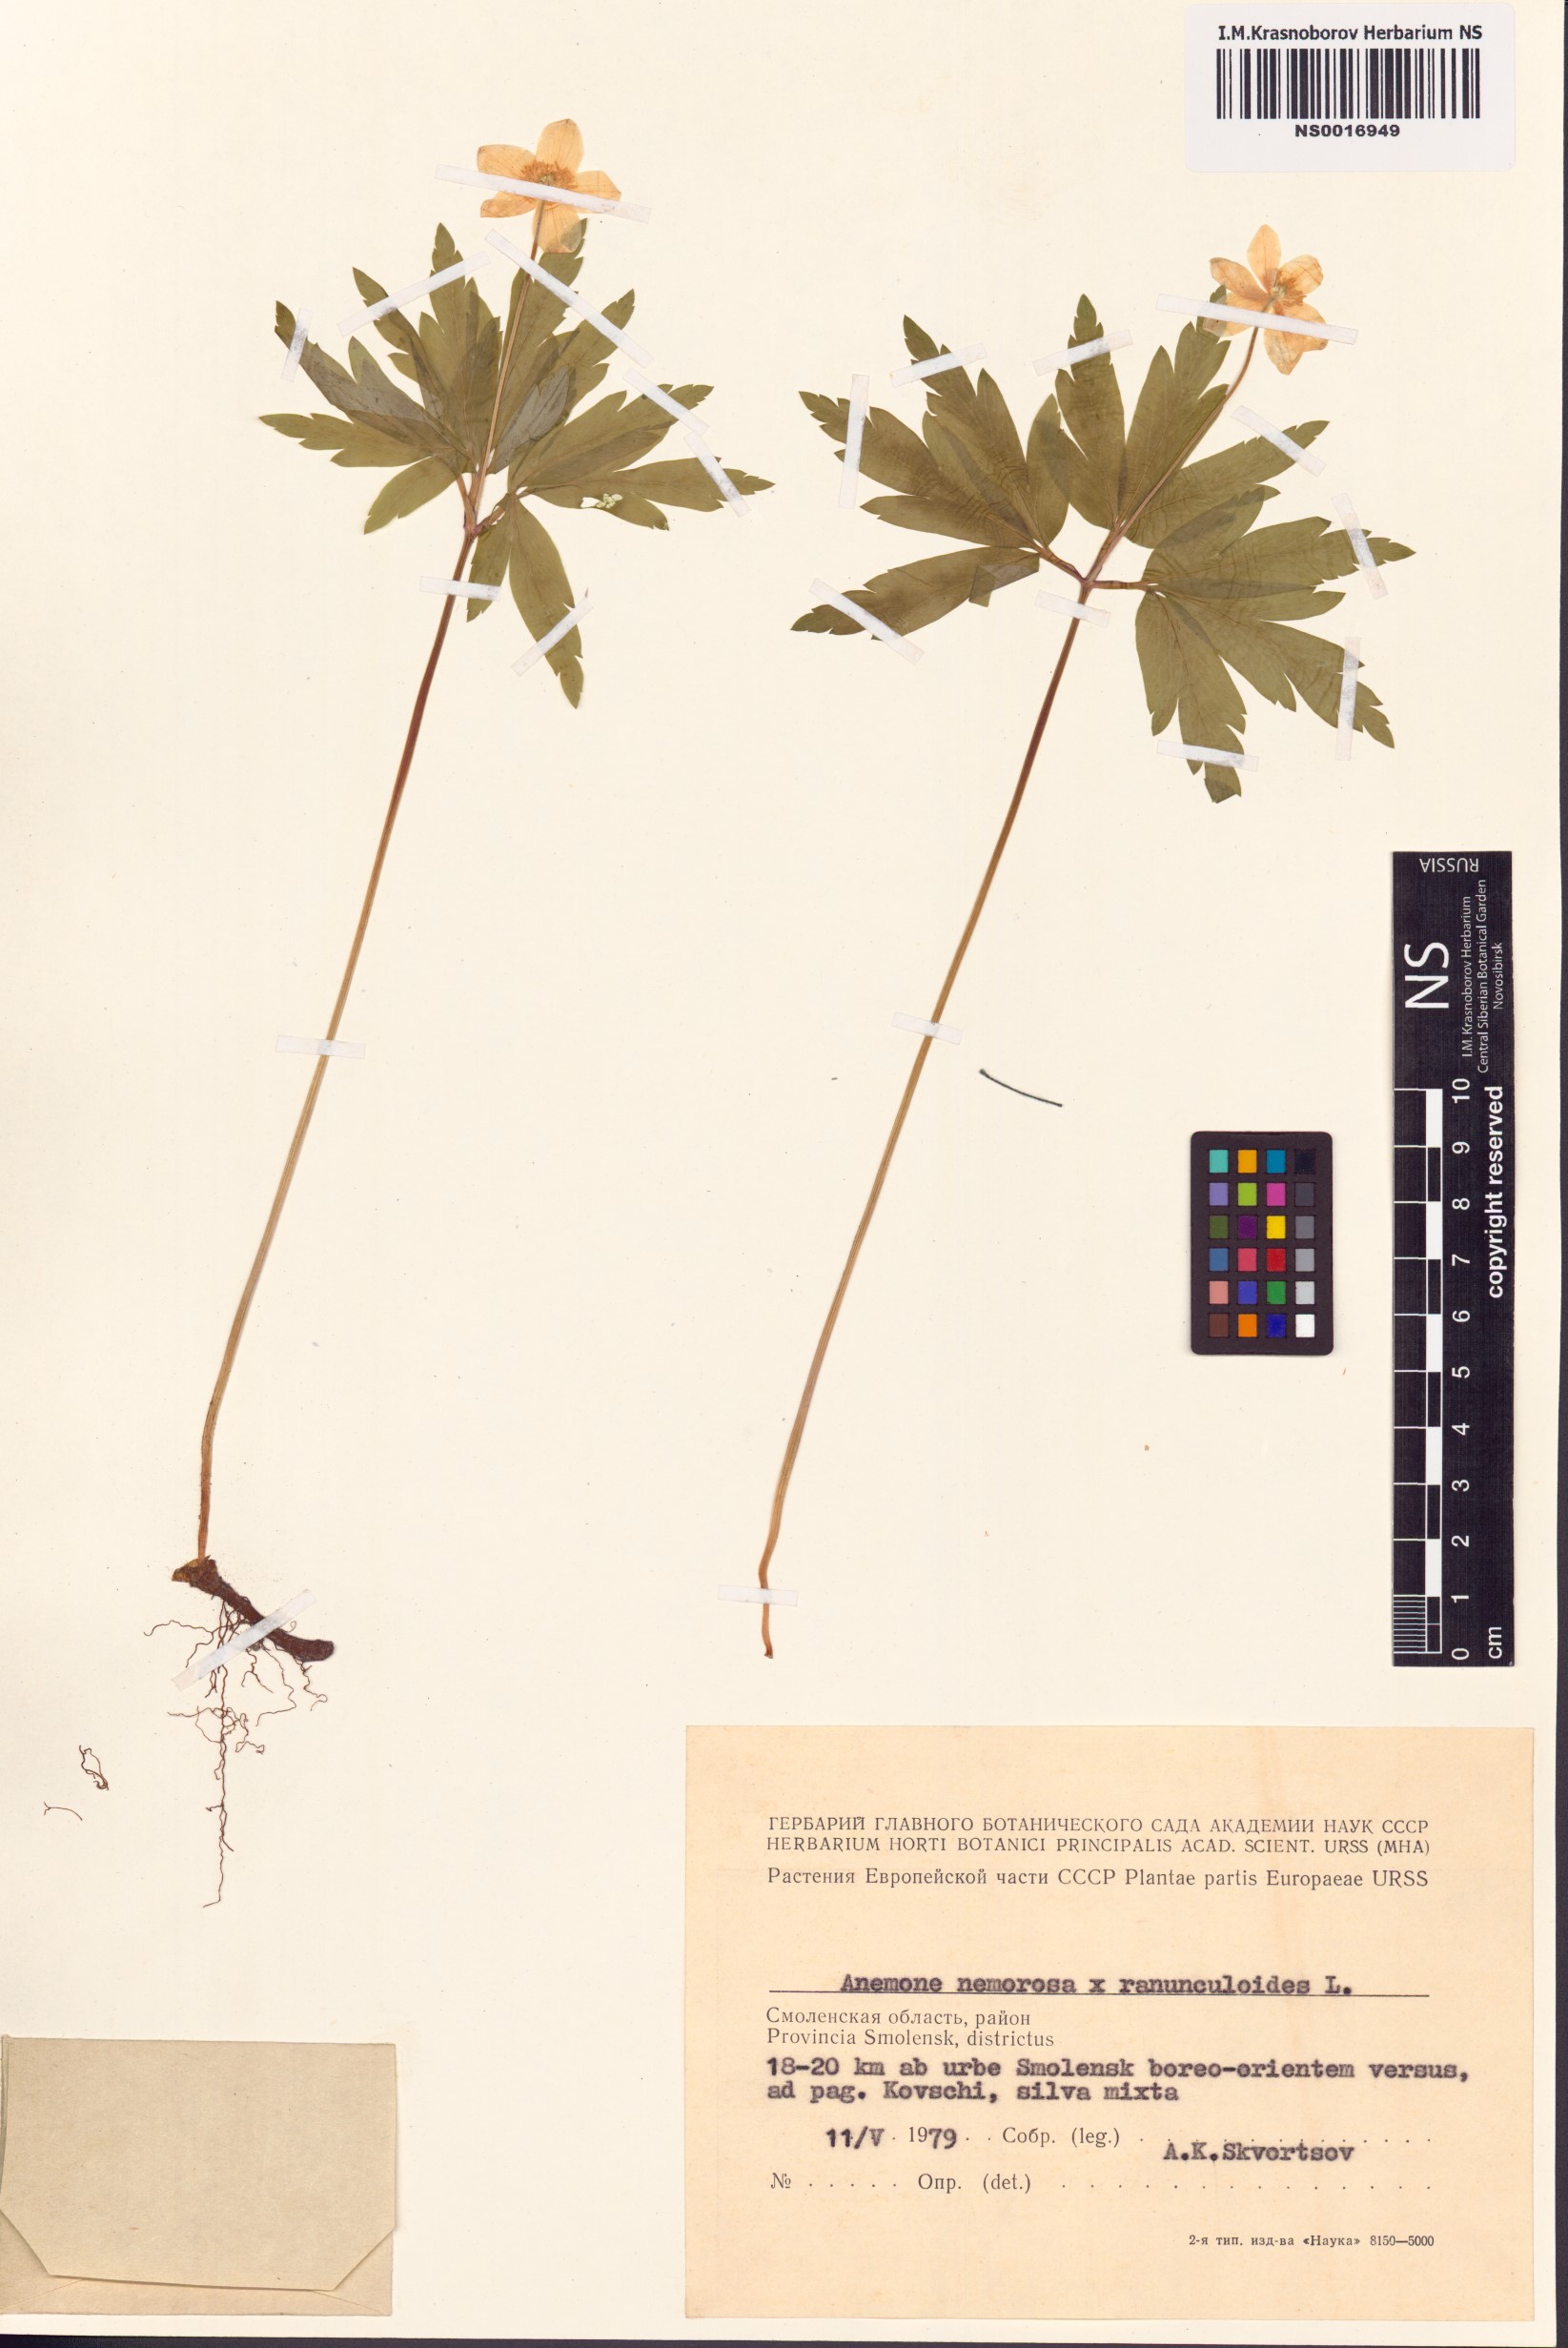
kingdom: Plantae
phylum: Tracheophyta
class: Magnoliopsida
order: Ranunculales
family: Ranunculaceae
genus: Anemone
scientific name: Anemone nemorosa
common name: Wood anemone
